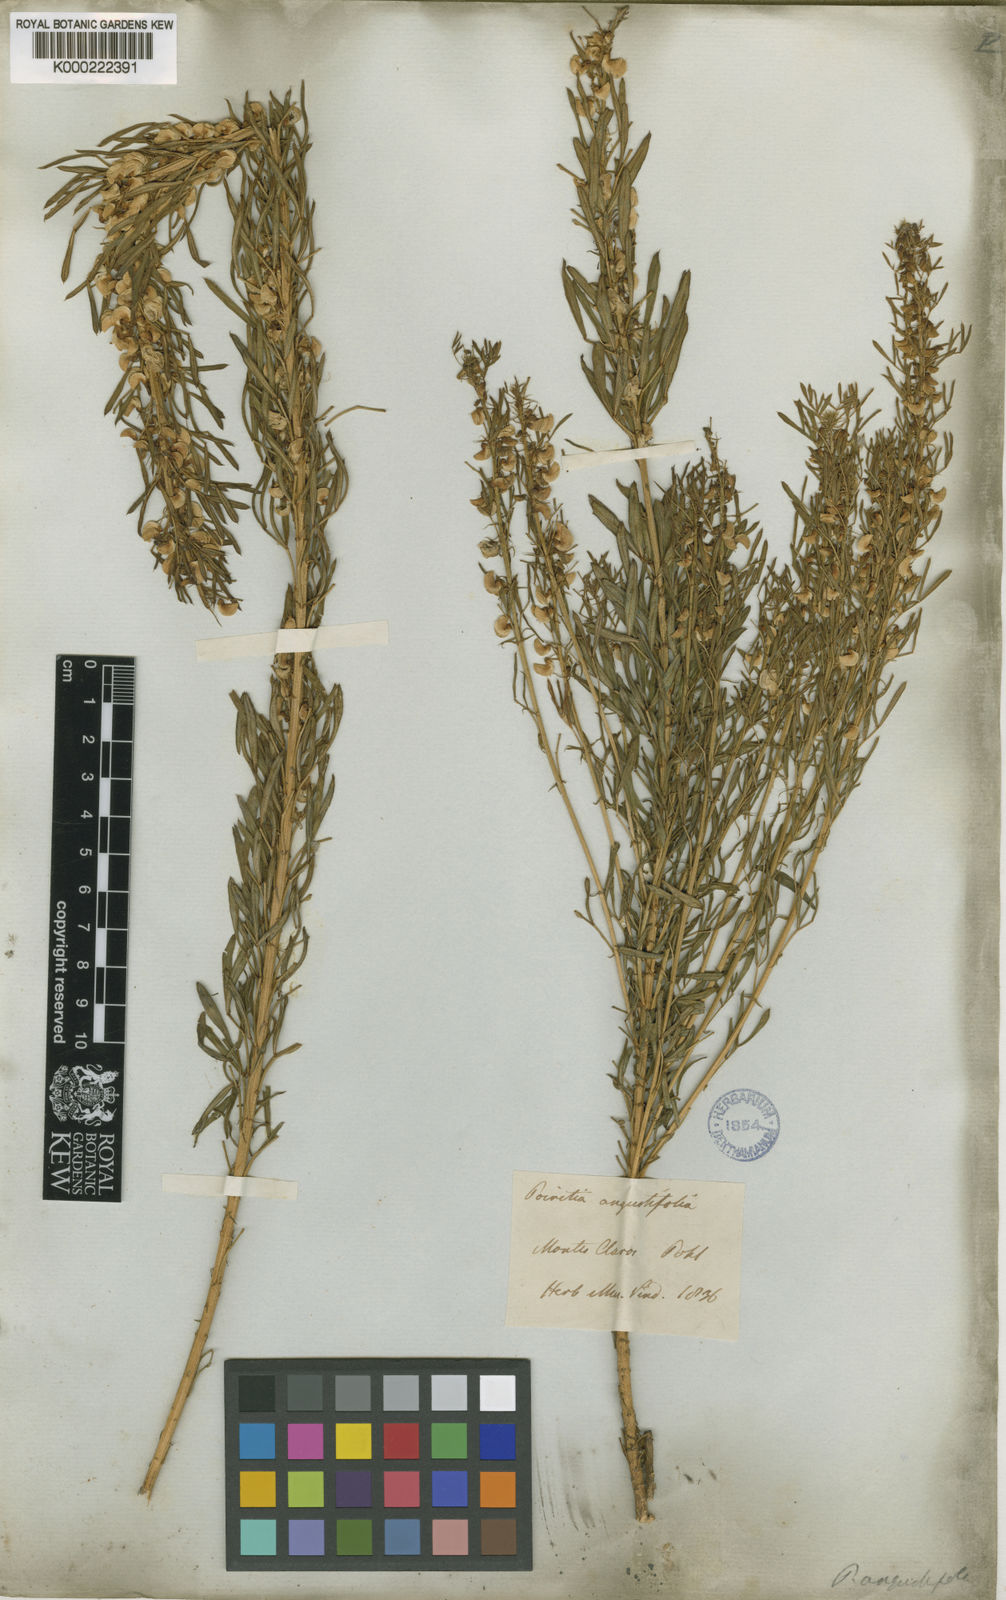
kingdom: Plantae
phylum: Tracheophyta
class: Magnoliopsida
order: Fabales
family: Fabaceae
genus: Poiretia
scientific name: Poiretia angustifolia
